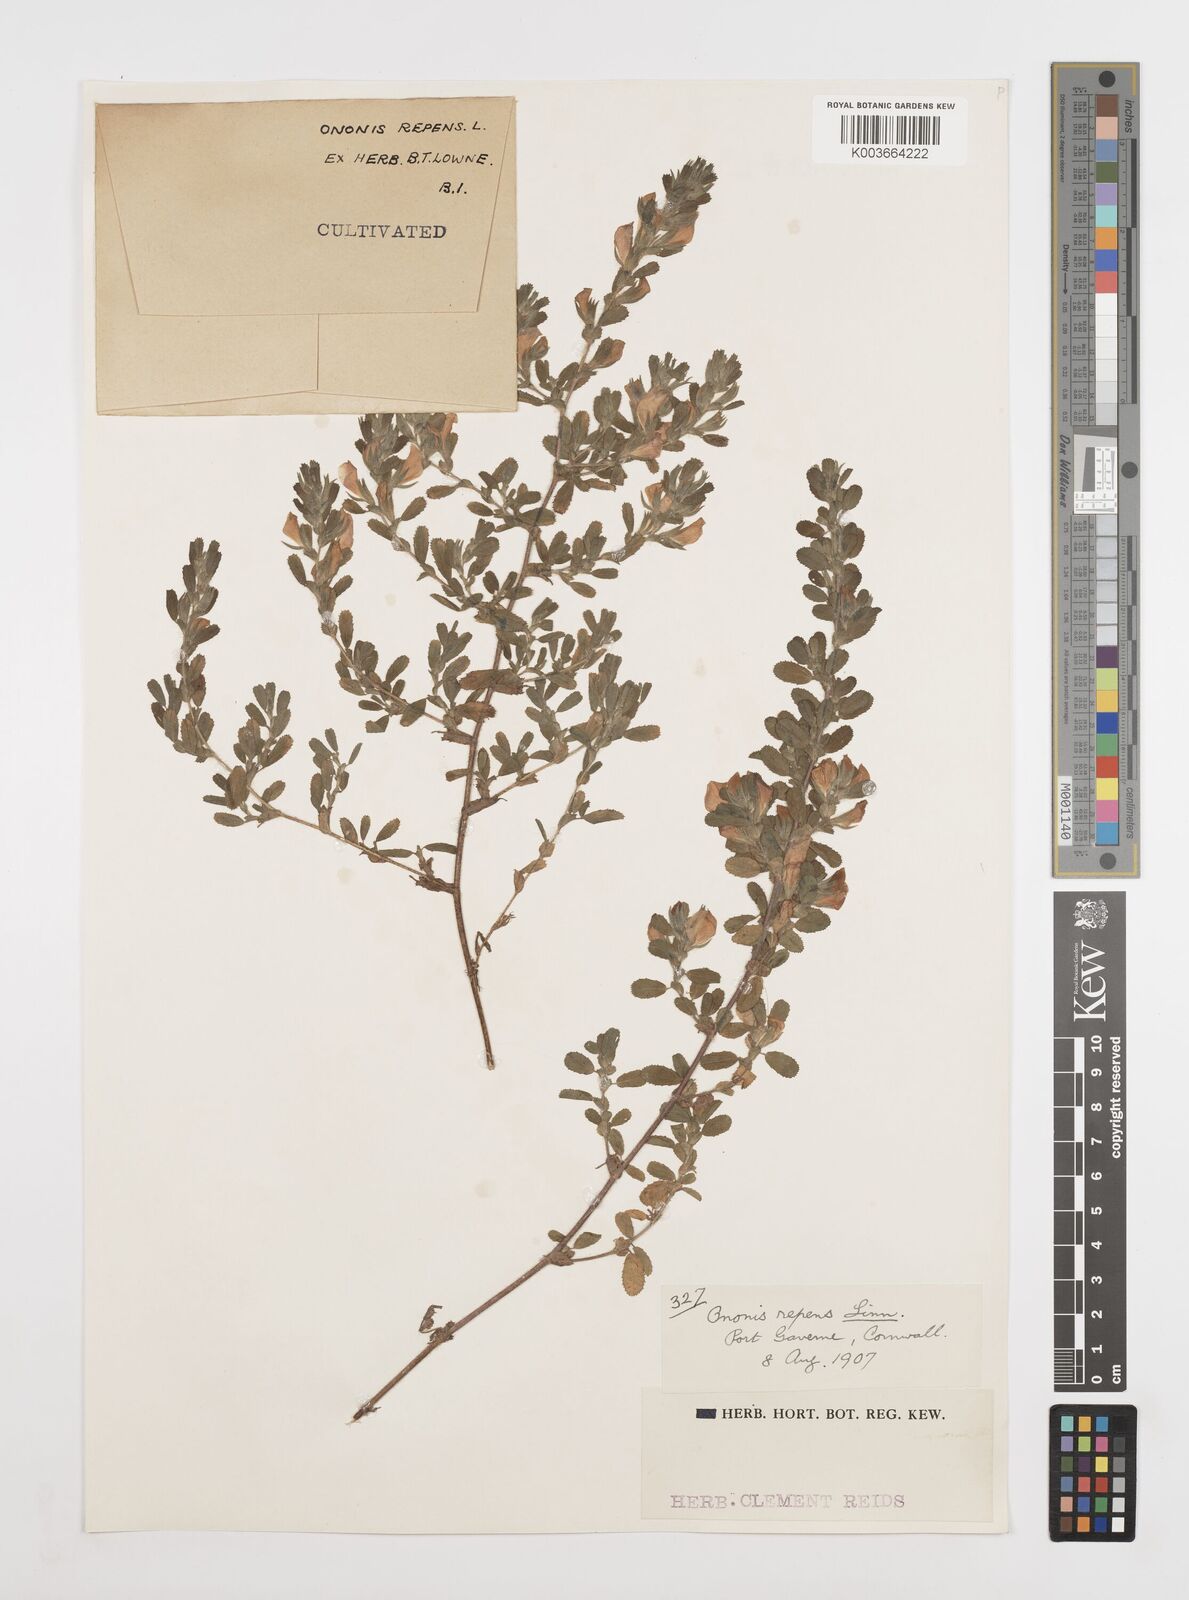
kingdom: Plantae
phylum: Tracheophyta
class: Magnoliopsida
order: Fabales
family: Fabaceae
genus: Ononis
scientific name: Ononis spinosa
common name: Spiny restharrow
